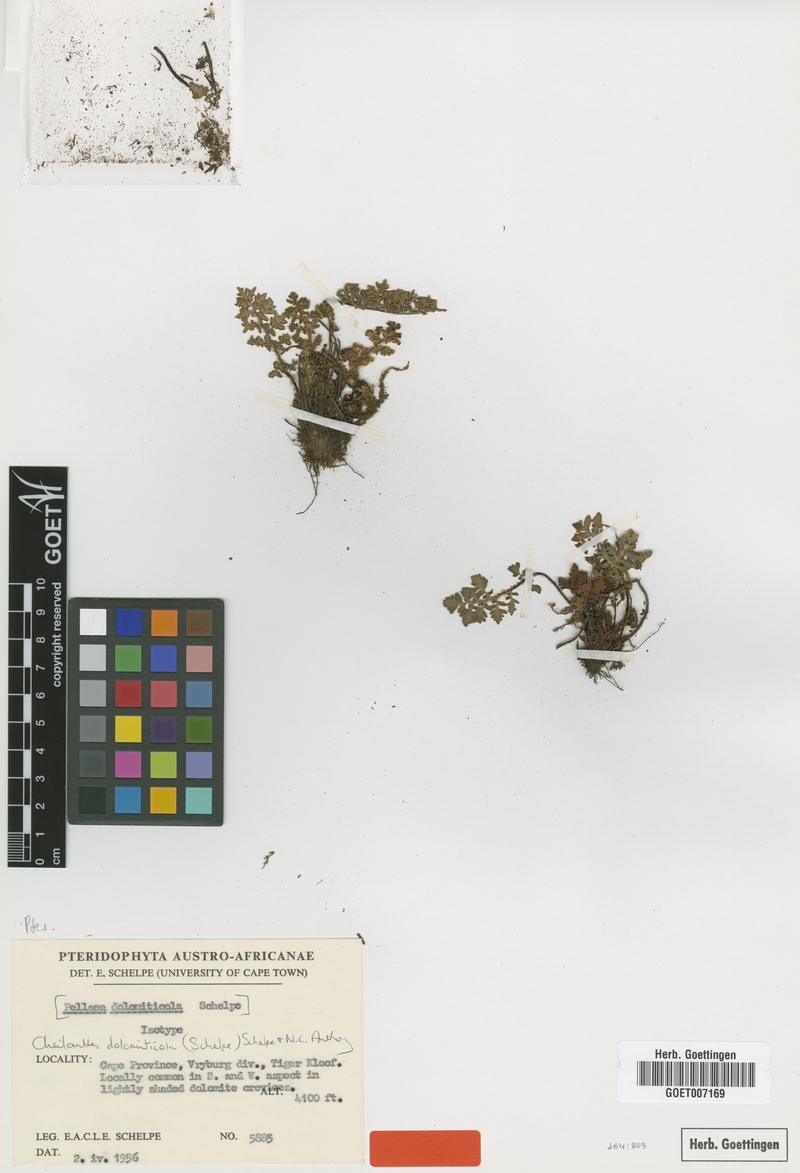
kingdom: Plantae
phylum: Tracheophyta
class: Polypodiopsida
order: Polypodiales
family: Pteridaceae
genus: Cheilanthes
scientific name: Cheilanthes dolomiticola
